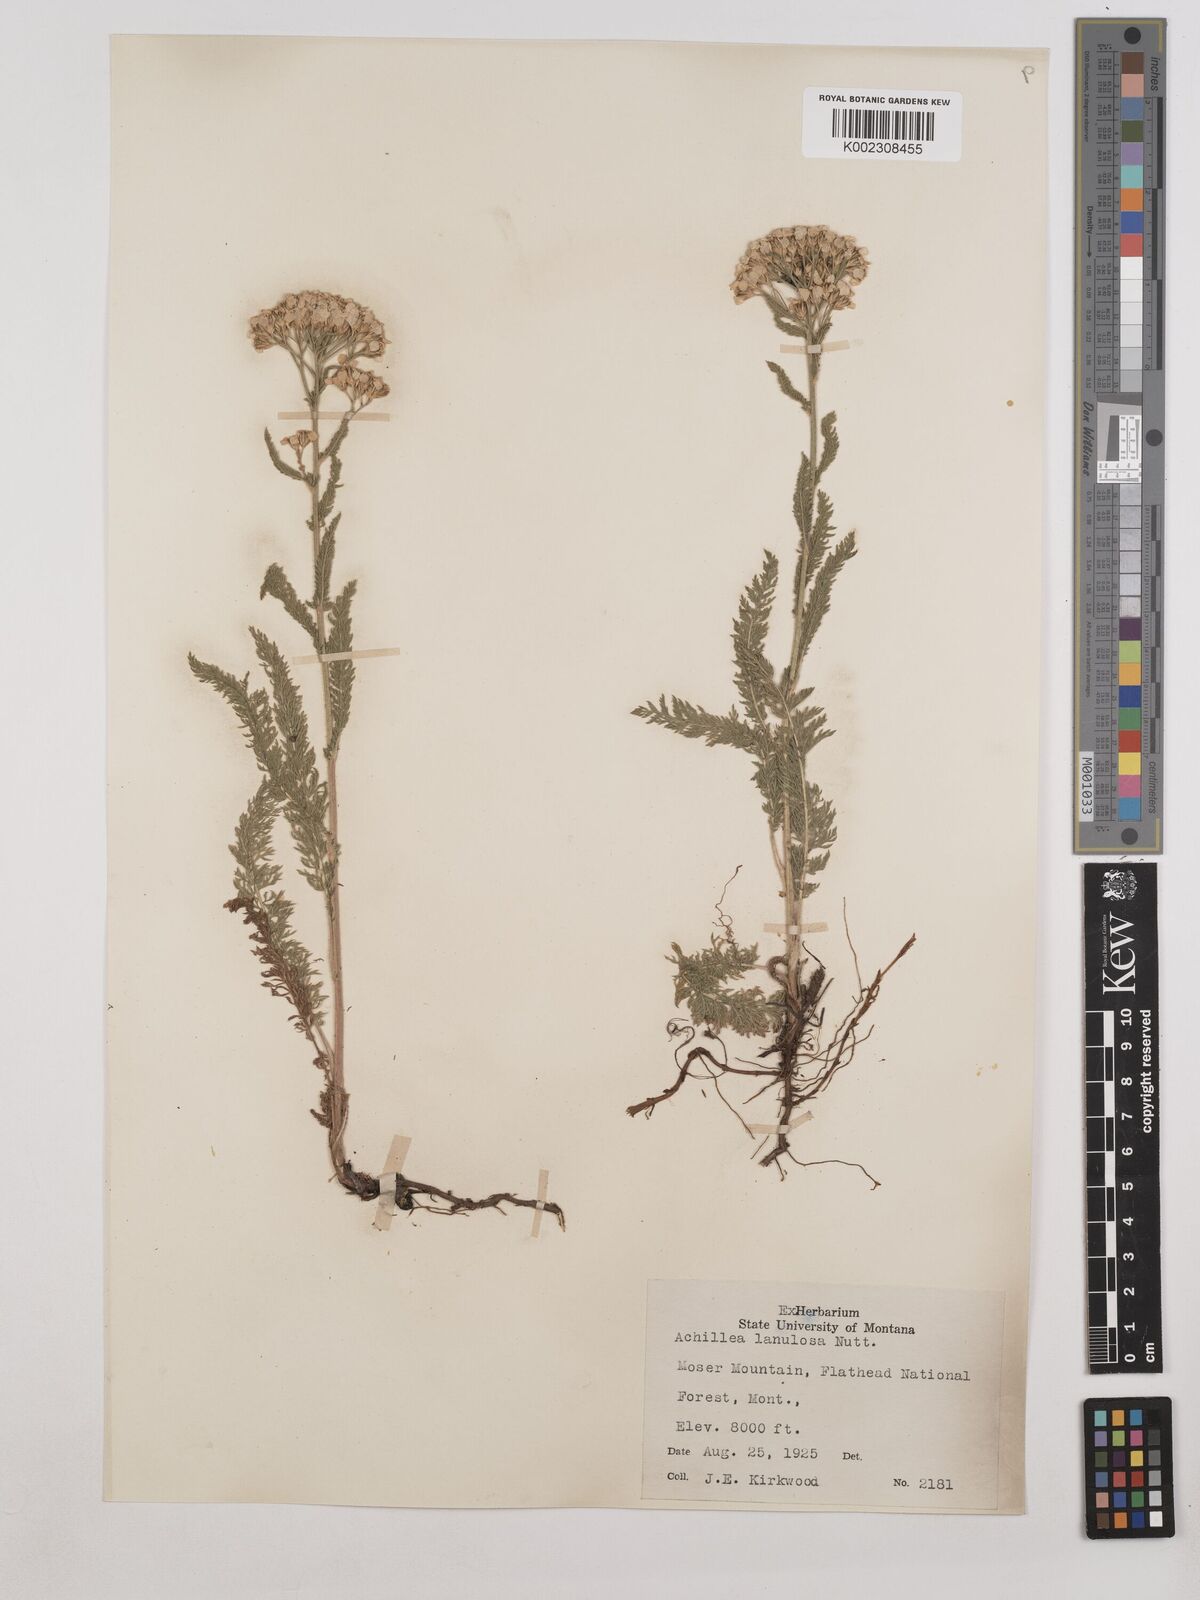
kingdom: Plantae
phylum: Tracheophyta
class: Magnoliopsida
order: Asterales
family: Asteraceae
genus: Achillea
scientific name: Achillea millefolium
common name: Yarrow
